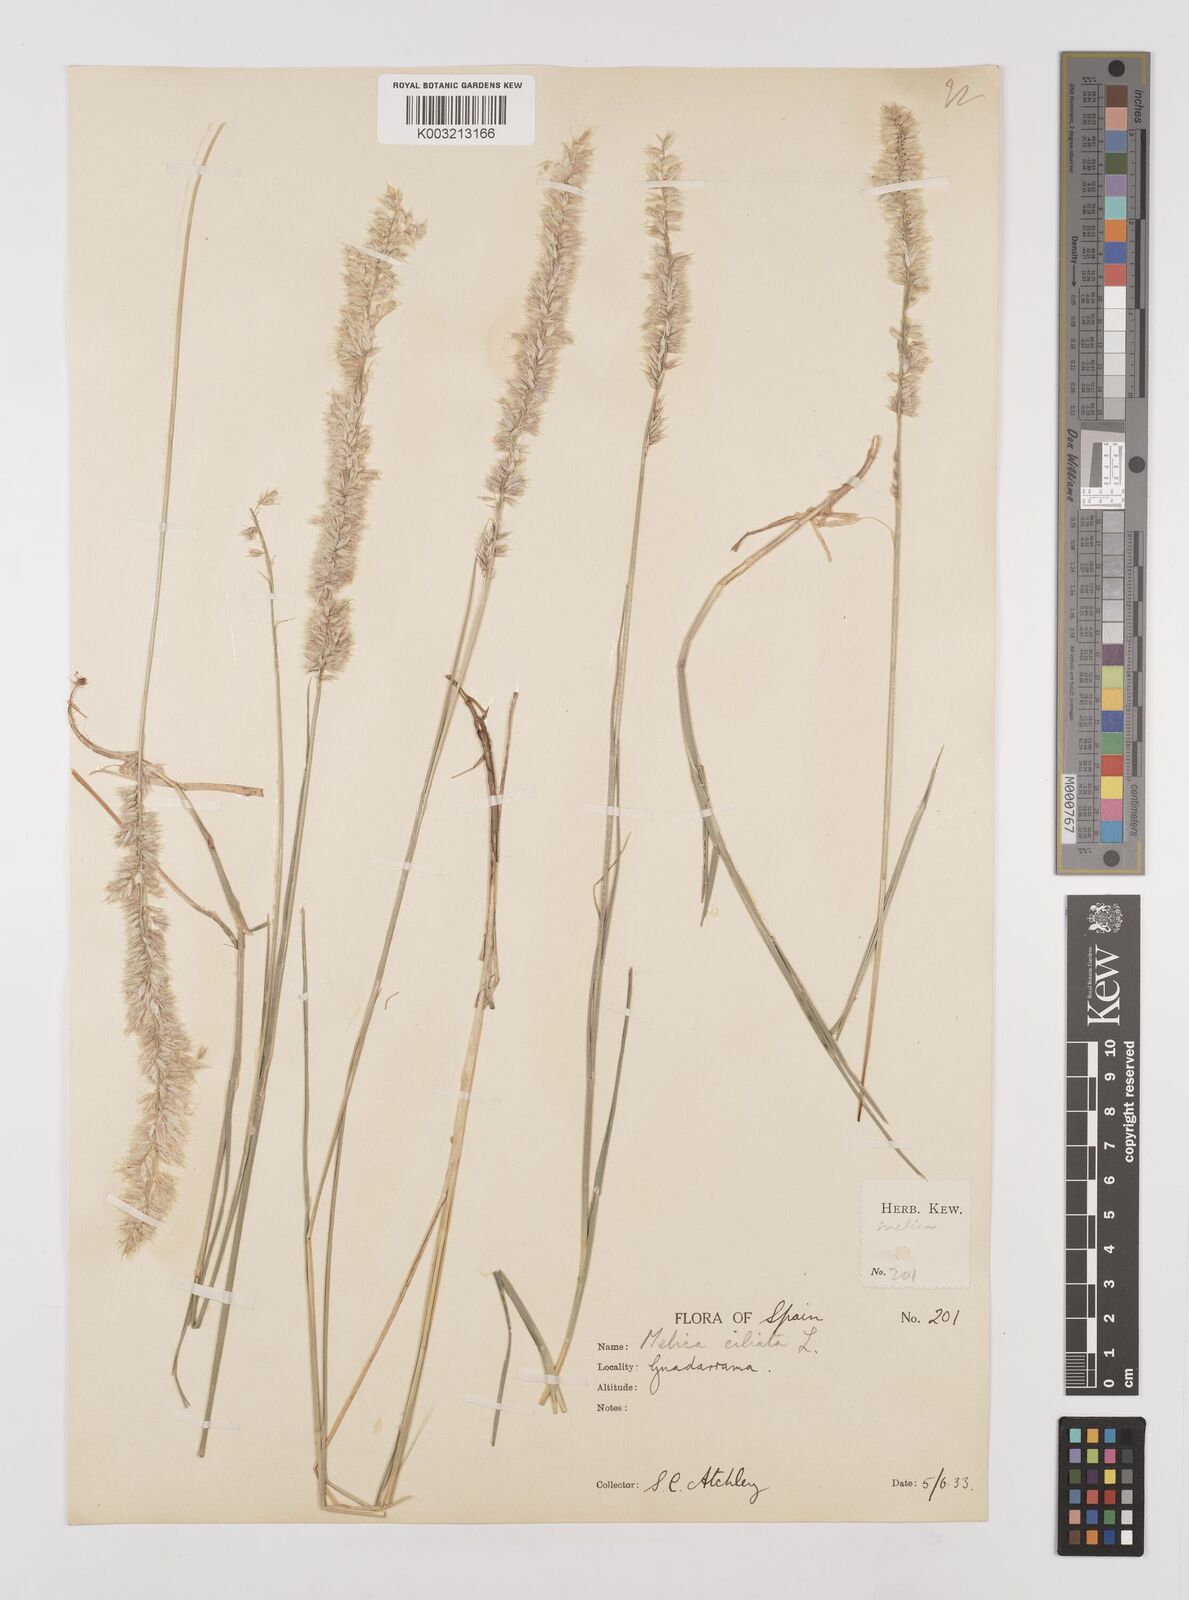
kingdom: Plantae
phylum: Tracheophyta
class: Liliopsida
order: Poales
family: Poaceae
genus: Melica
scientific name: Melica ciliata
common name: Hairy melicgrass
